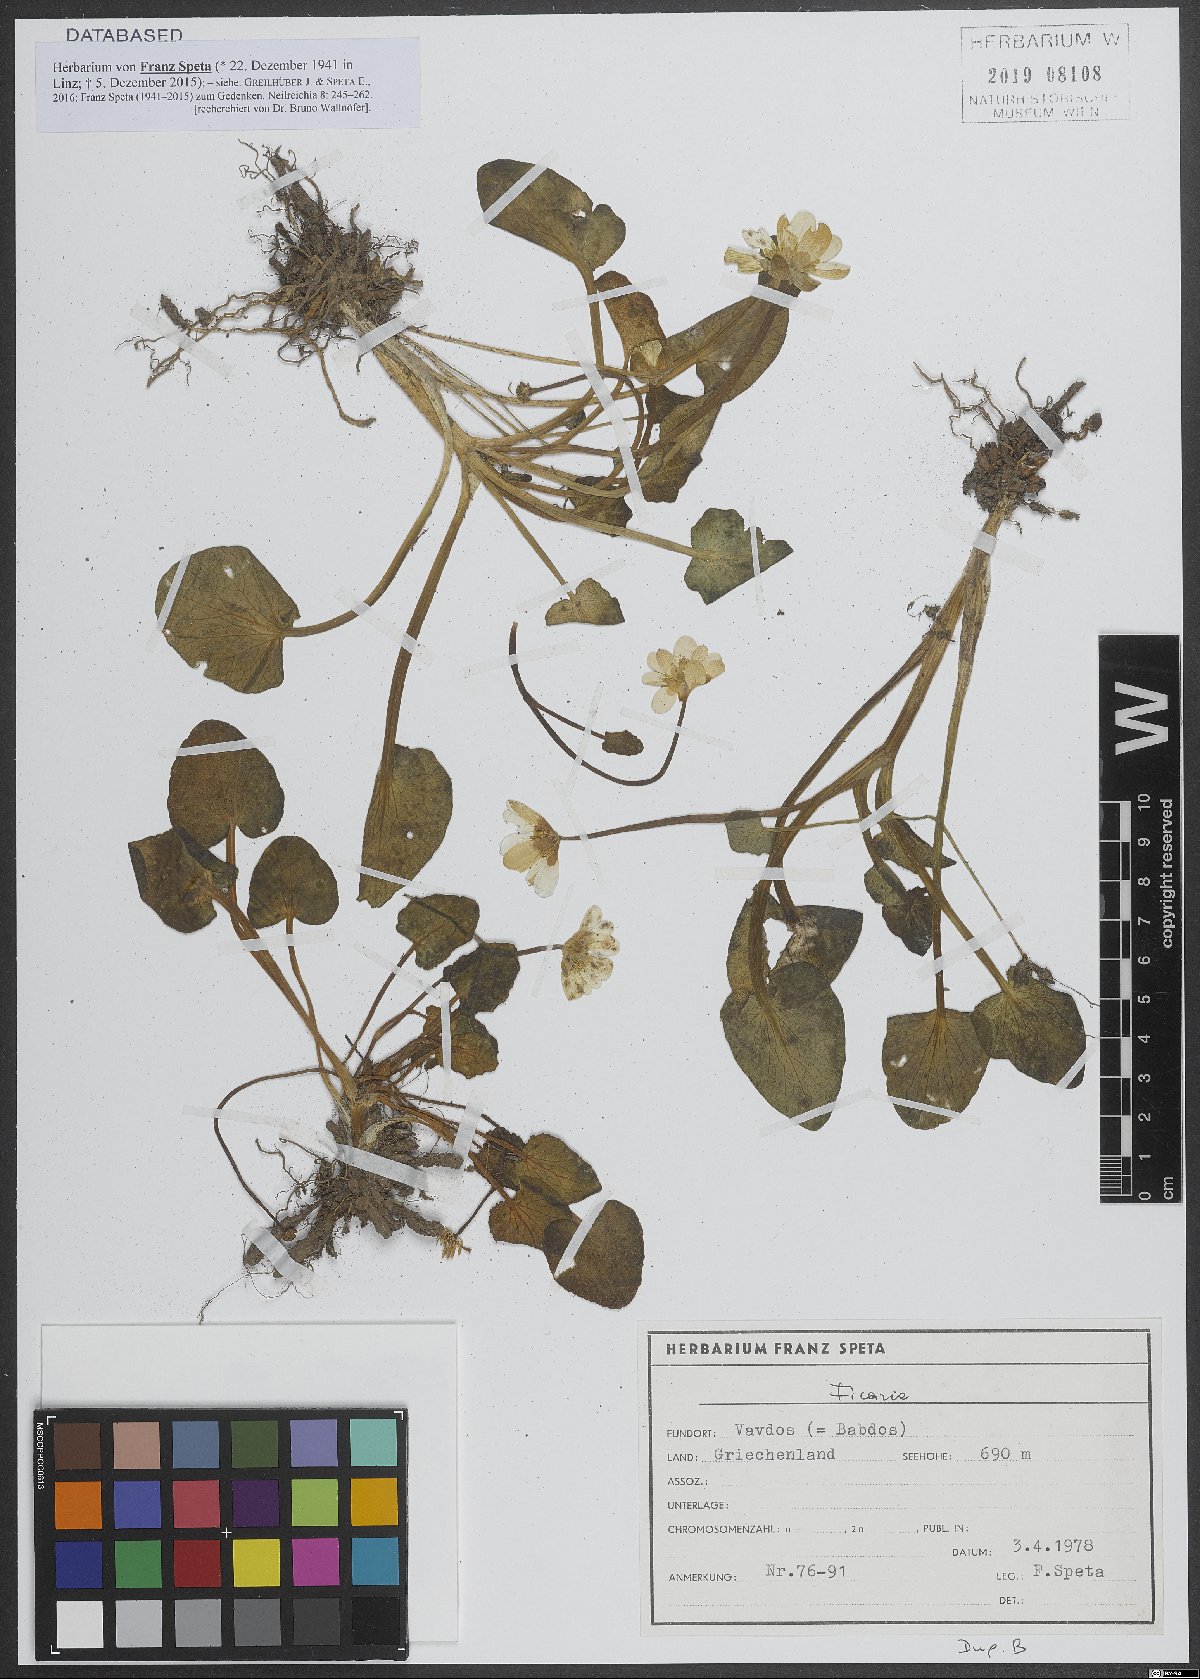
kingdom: Plantae
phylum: Tracheophyta
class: Magnoliopsida
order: Ranunculales
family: Ranunculaceae
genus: Ficaria
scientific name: Ficaria
